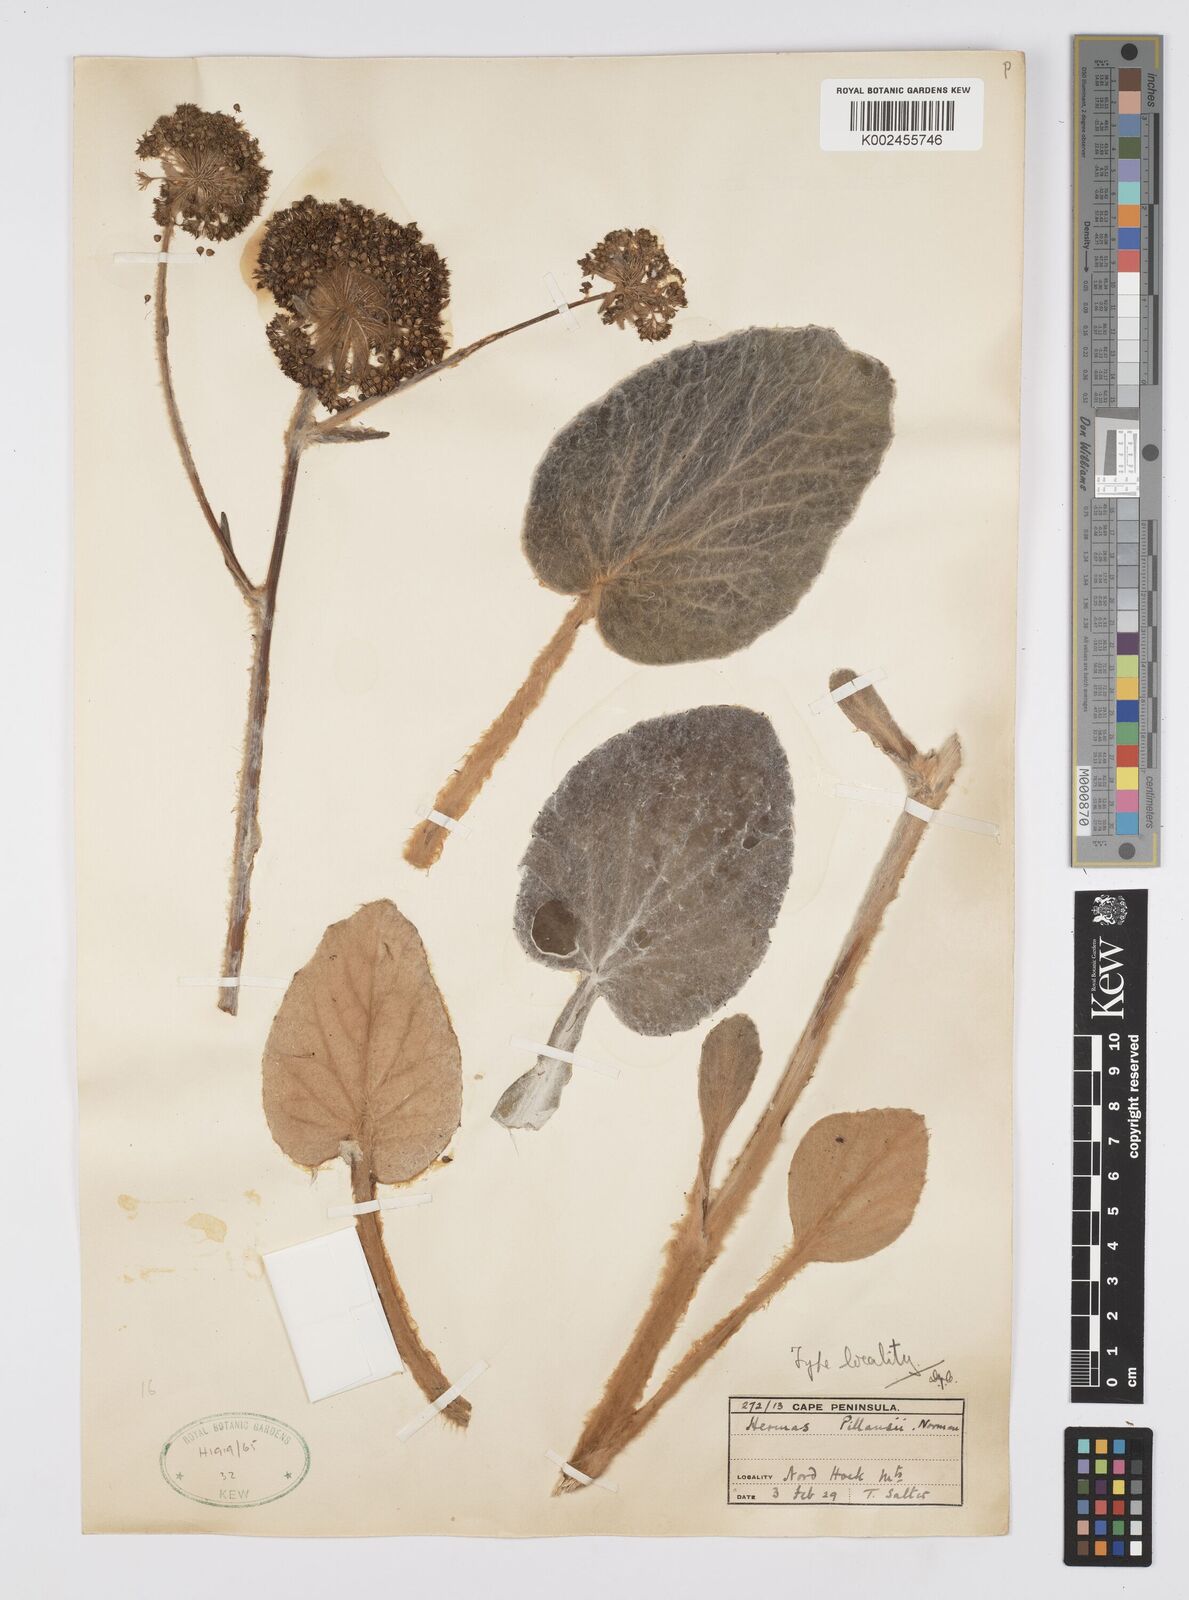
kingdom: Plantae
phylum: Tracheophyta
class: Magnoliopsida
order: Apiales
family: Apiaceae
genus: Hermas
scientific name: Hermas capitata
